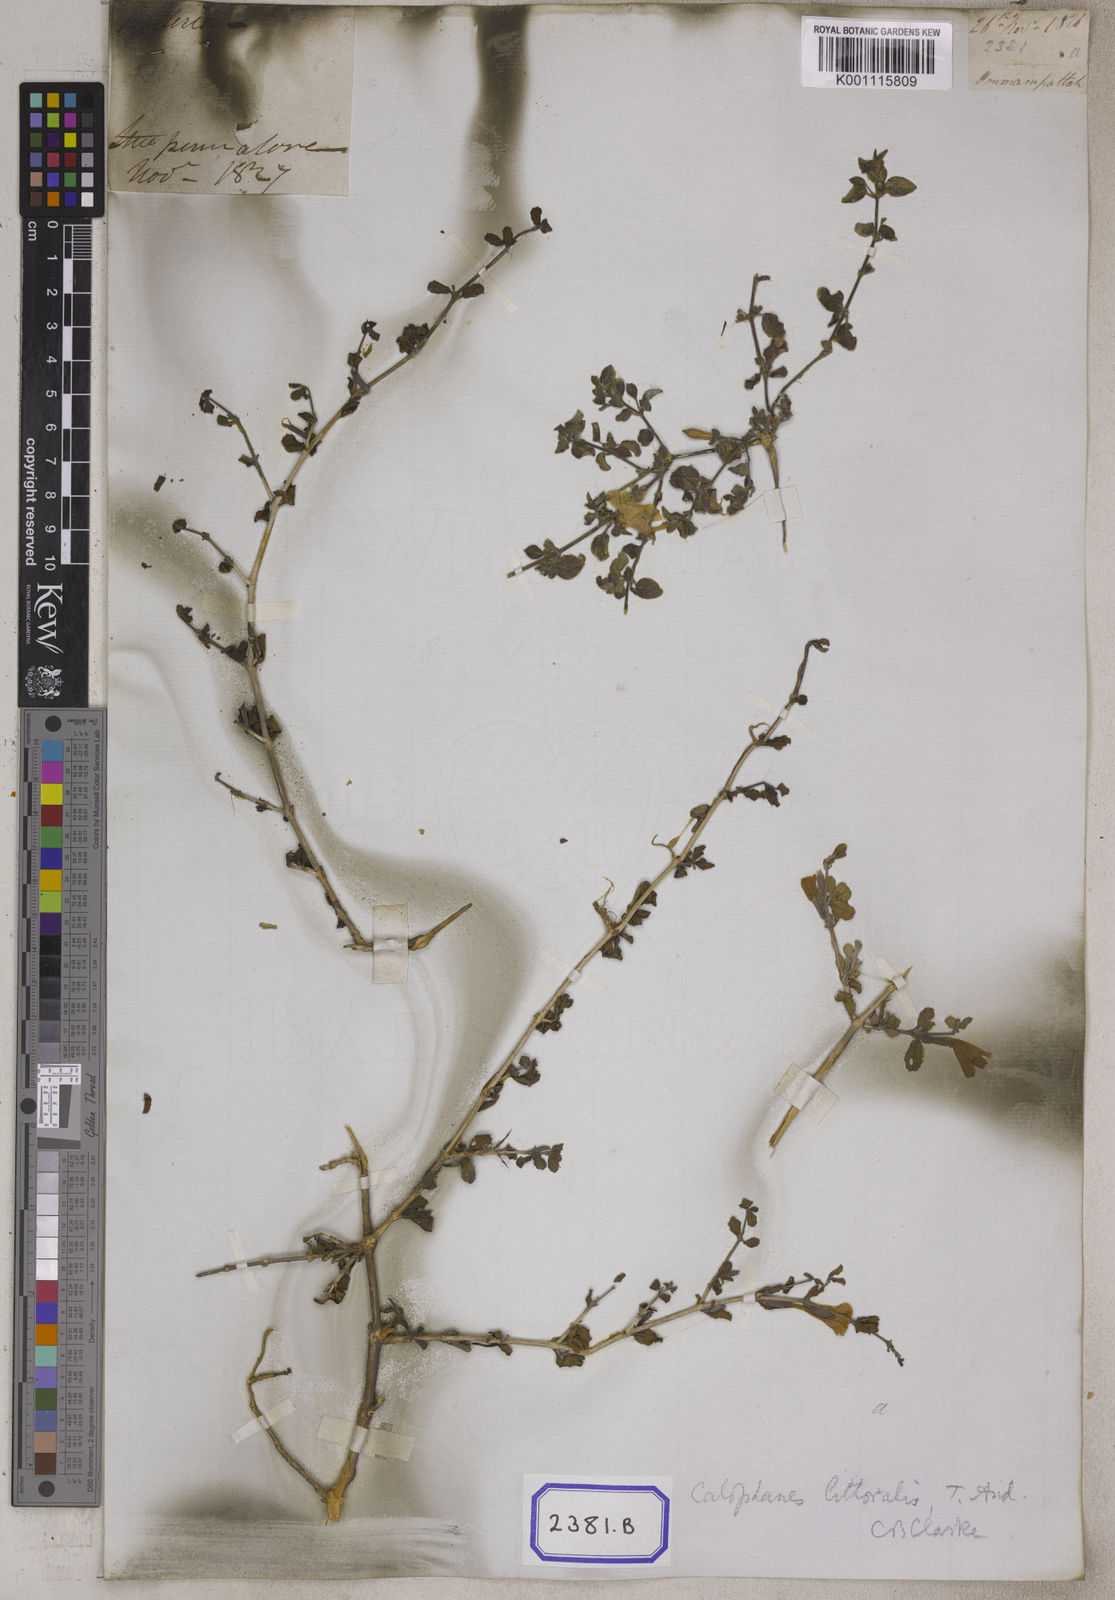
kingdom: Plantae
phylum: Tracheophyta
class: Magnoliopsida
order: Lamiales
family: Acanthaceae
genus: Dyschoriste
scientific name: Dyschoriste madurensis
